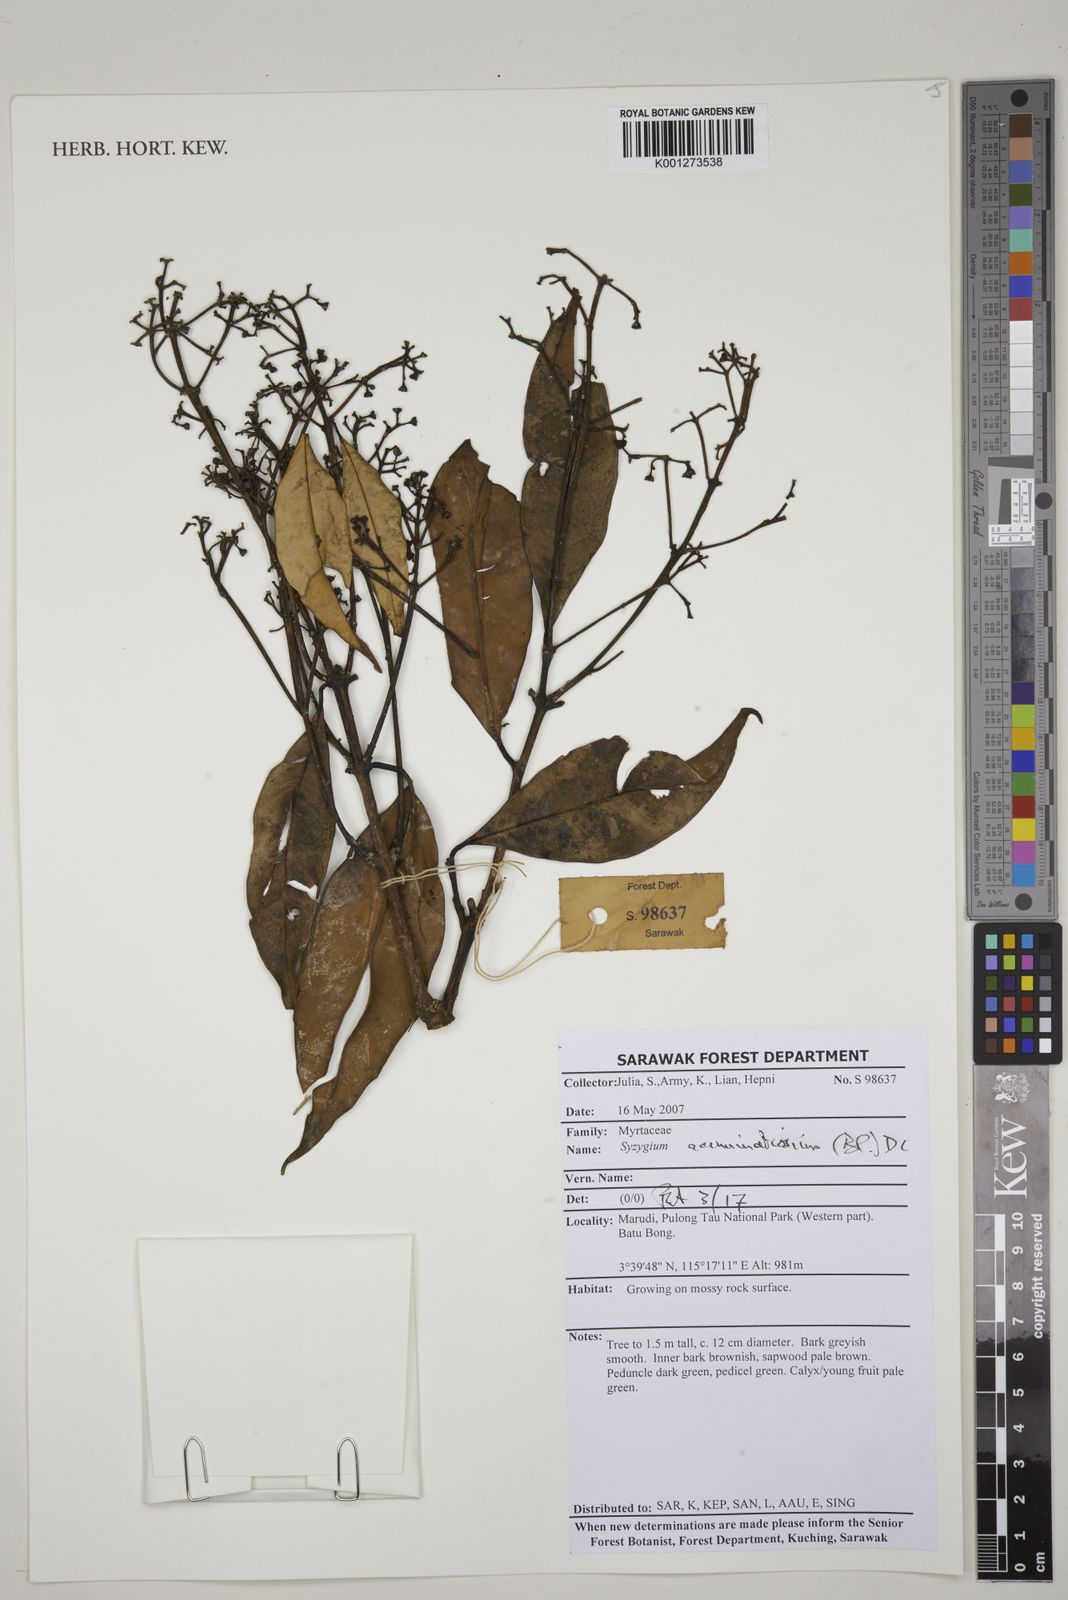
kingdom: Plantae
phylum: Tracheophyta
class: Magnoliopsida
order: Myrtales
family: Myrtaceae
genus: Syzygium
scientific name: Syzygium acuminatissimum
